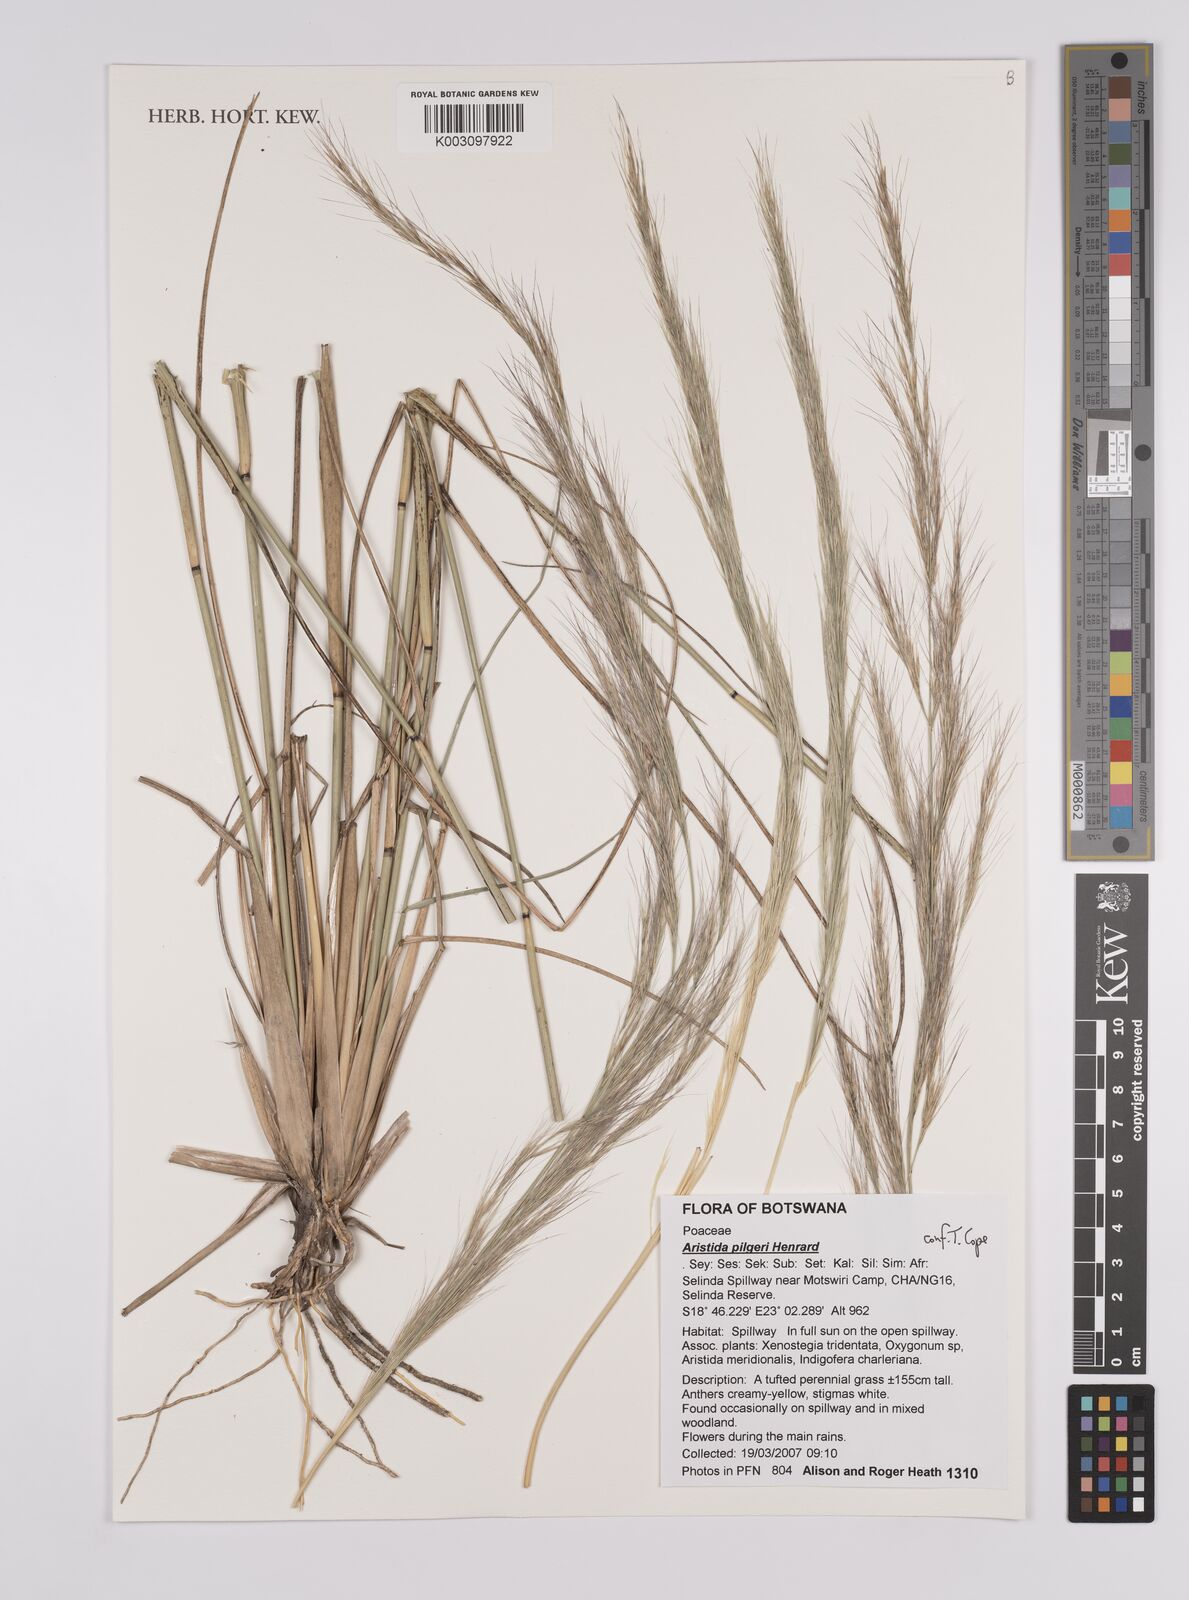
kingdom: Plantae
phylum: Tracheophyta
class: Liliopsida
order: Poales
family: Poaceae
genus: Aristida
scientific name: Aristida pilgeri
